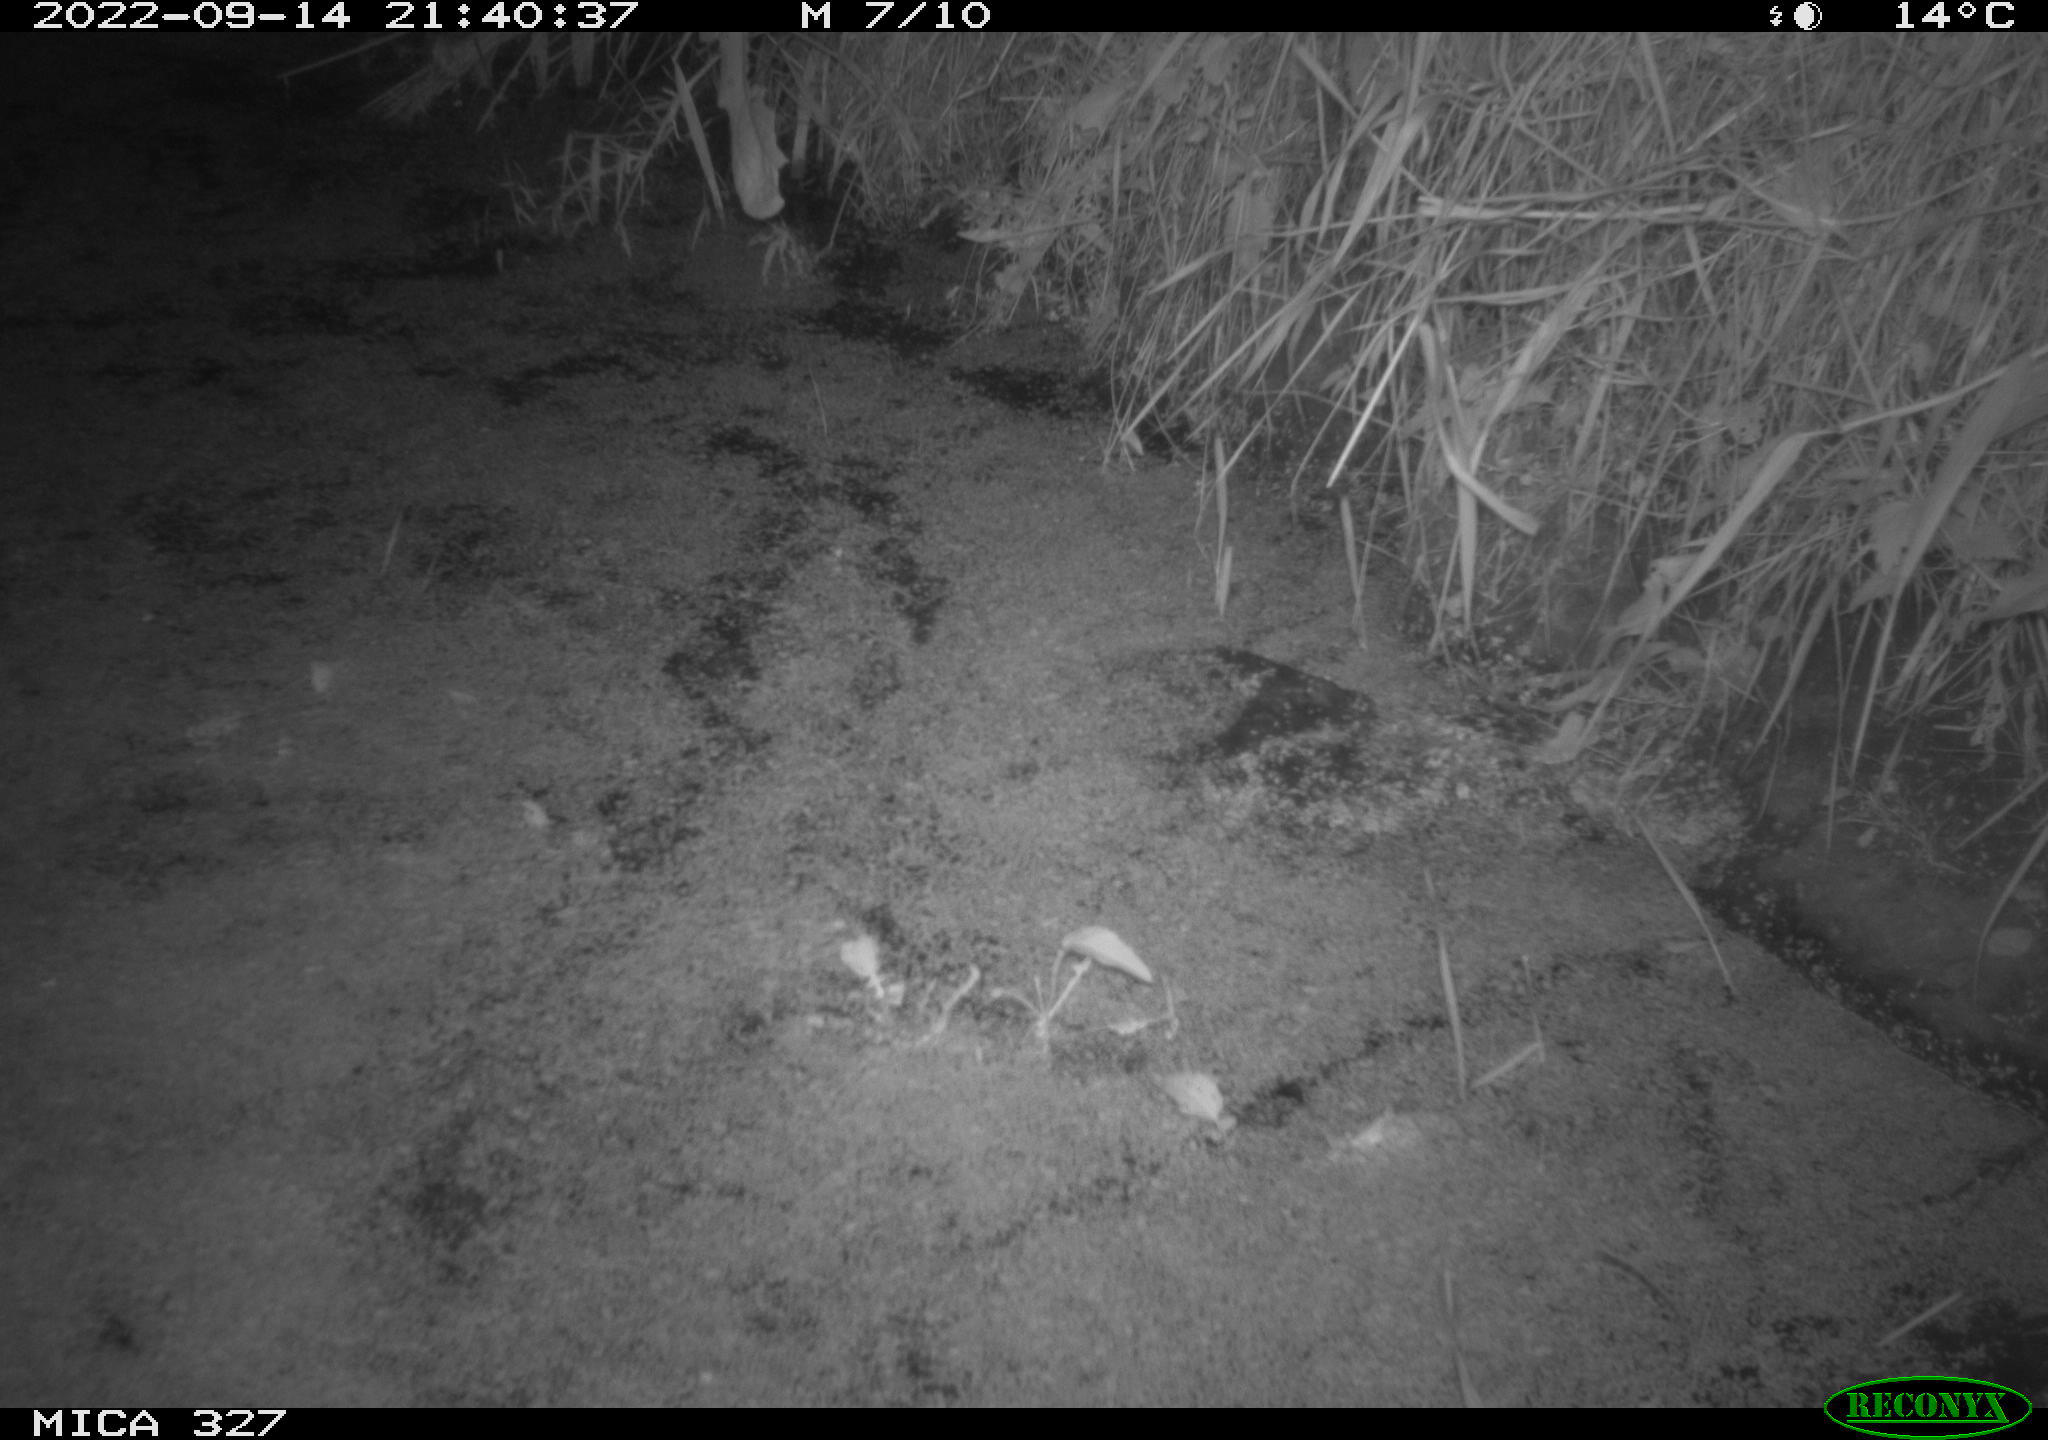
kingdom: Animalia
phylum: Chordata
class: Mammalia
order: Rodentia
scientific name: Rodentia
